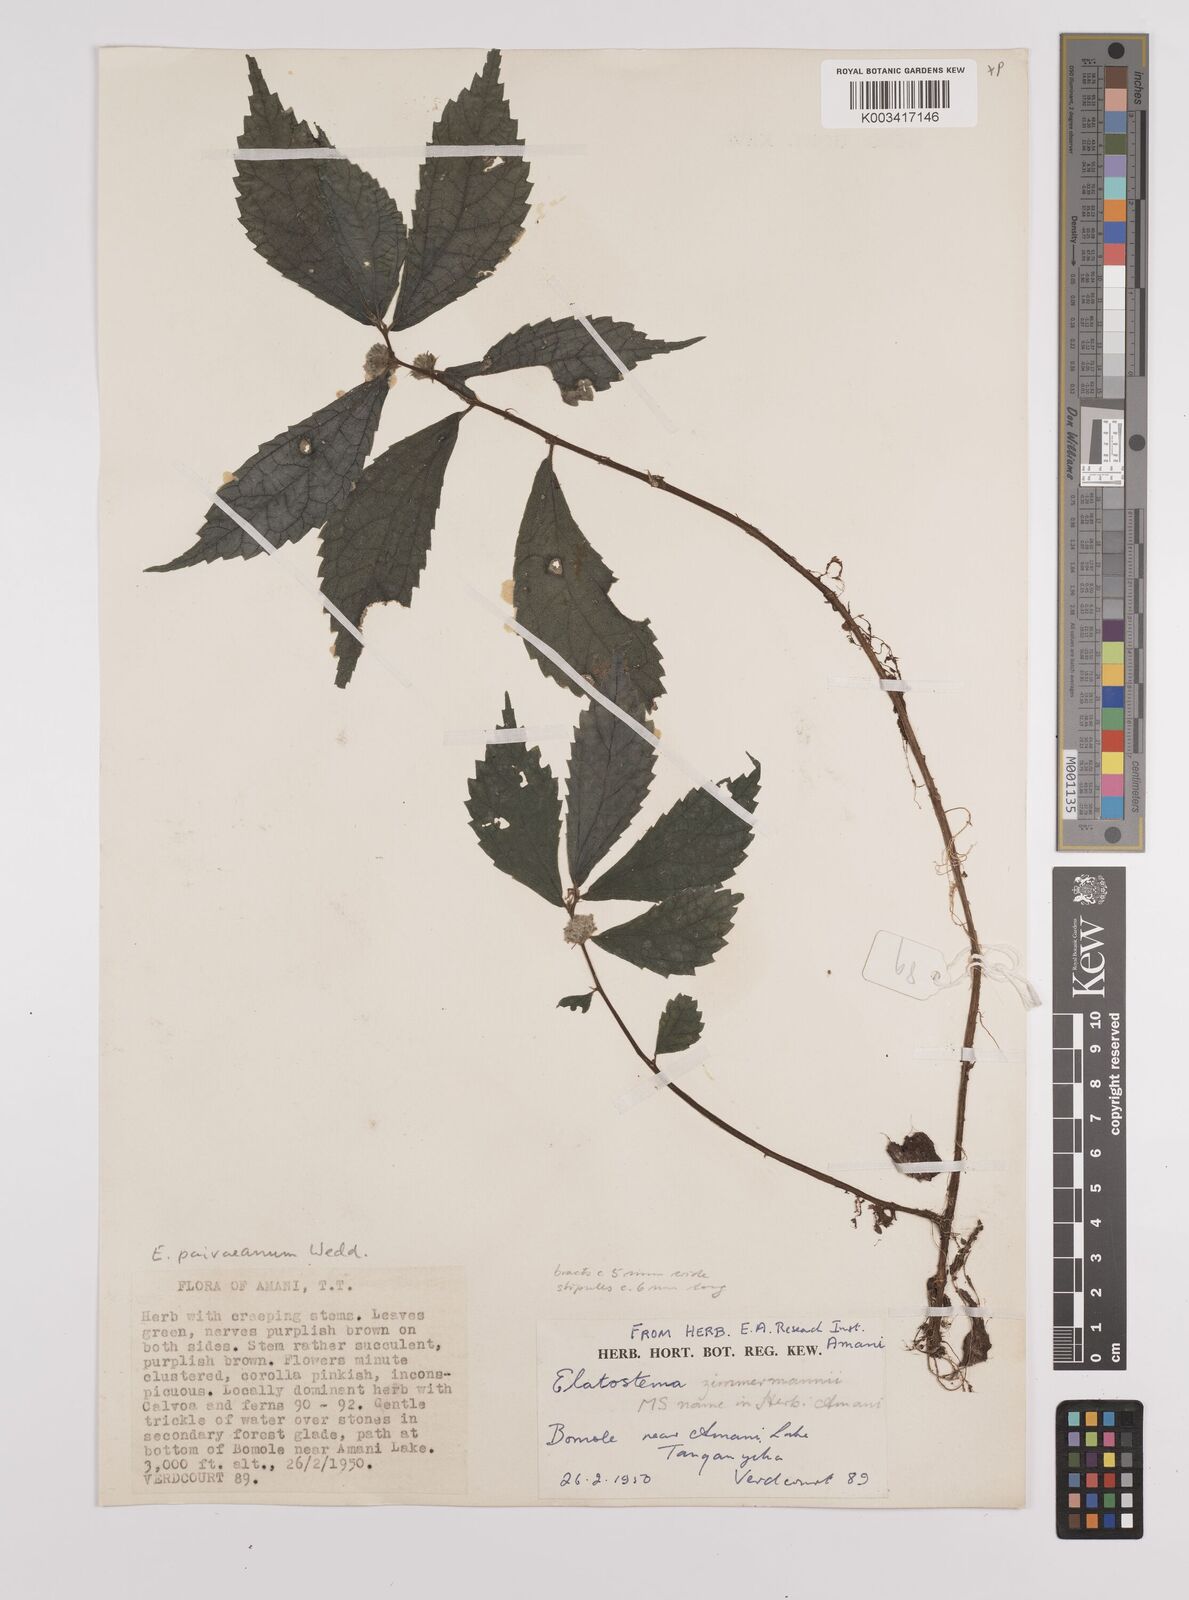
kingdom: Plantae
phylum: Tracheophyta
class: Magnoliopsida
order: Rosales
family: Urticaceae
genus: Elatostema
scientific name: Elatostema paivaeanum
